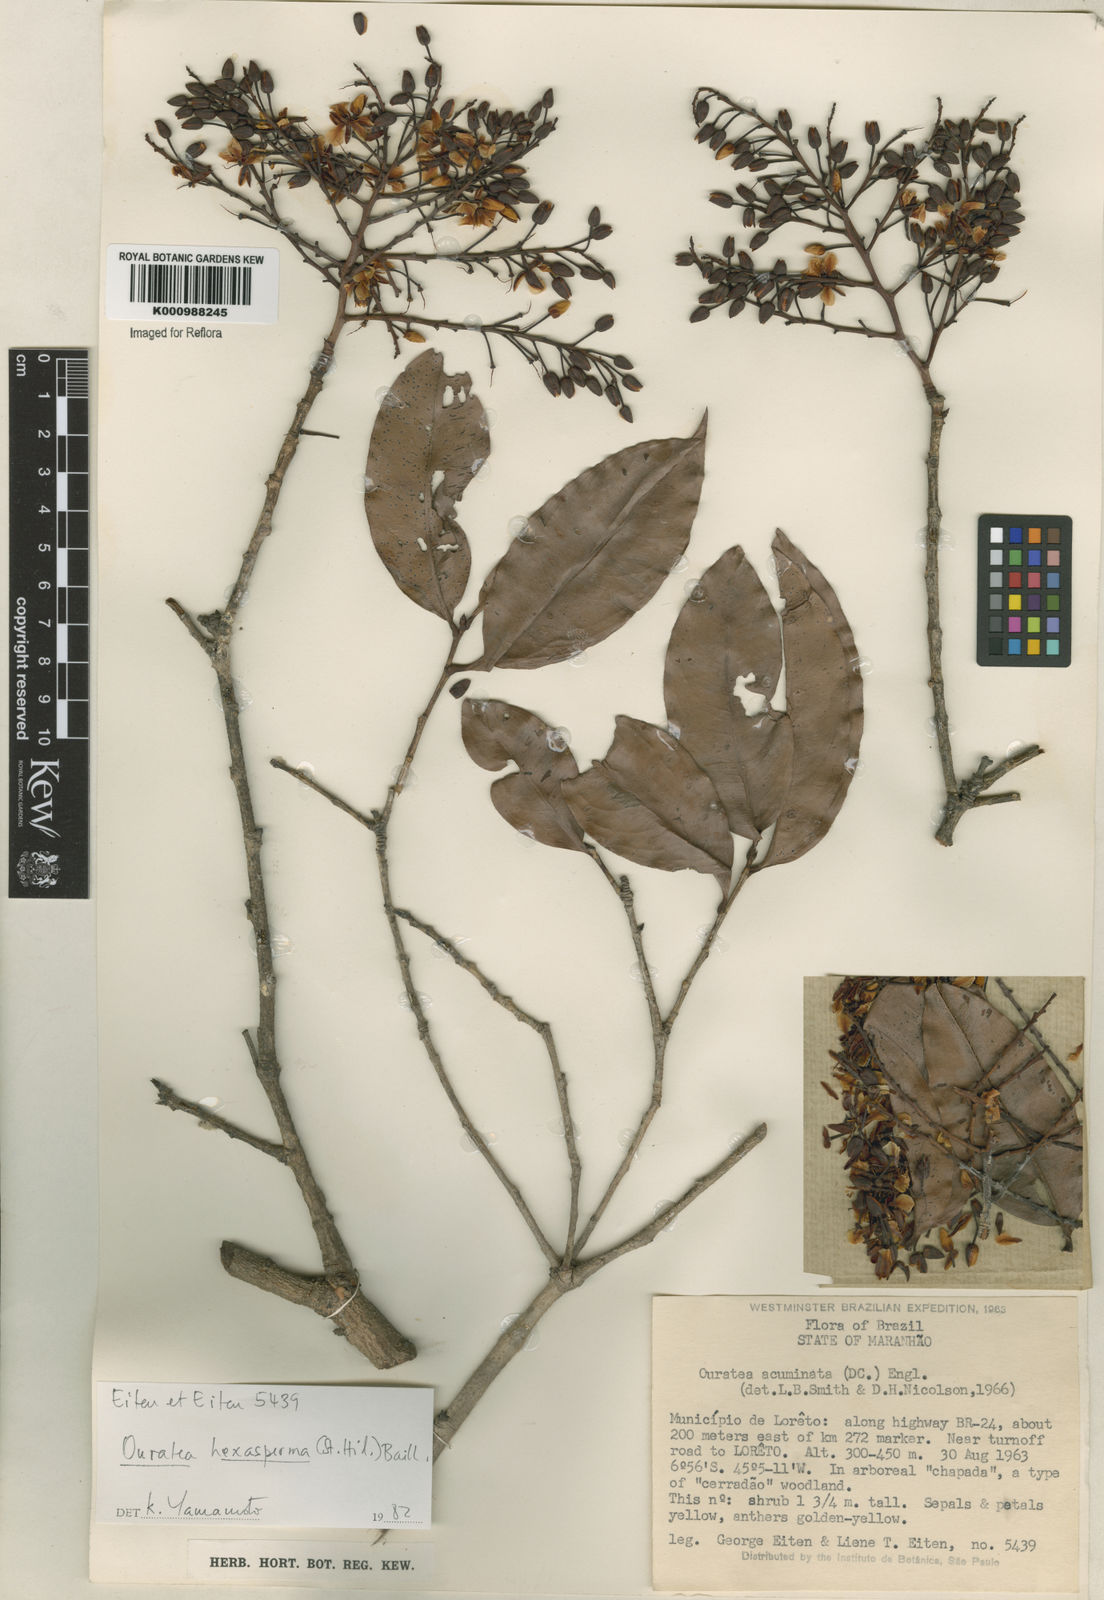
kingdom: Plantae
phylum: Tracheophyta
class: Magnoliopsida
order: Malpighiales
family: Ochnaceae
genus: Ouratea
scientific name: Ouratea hexasperma
